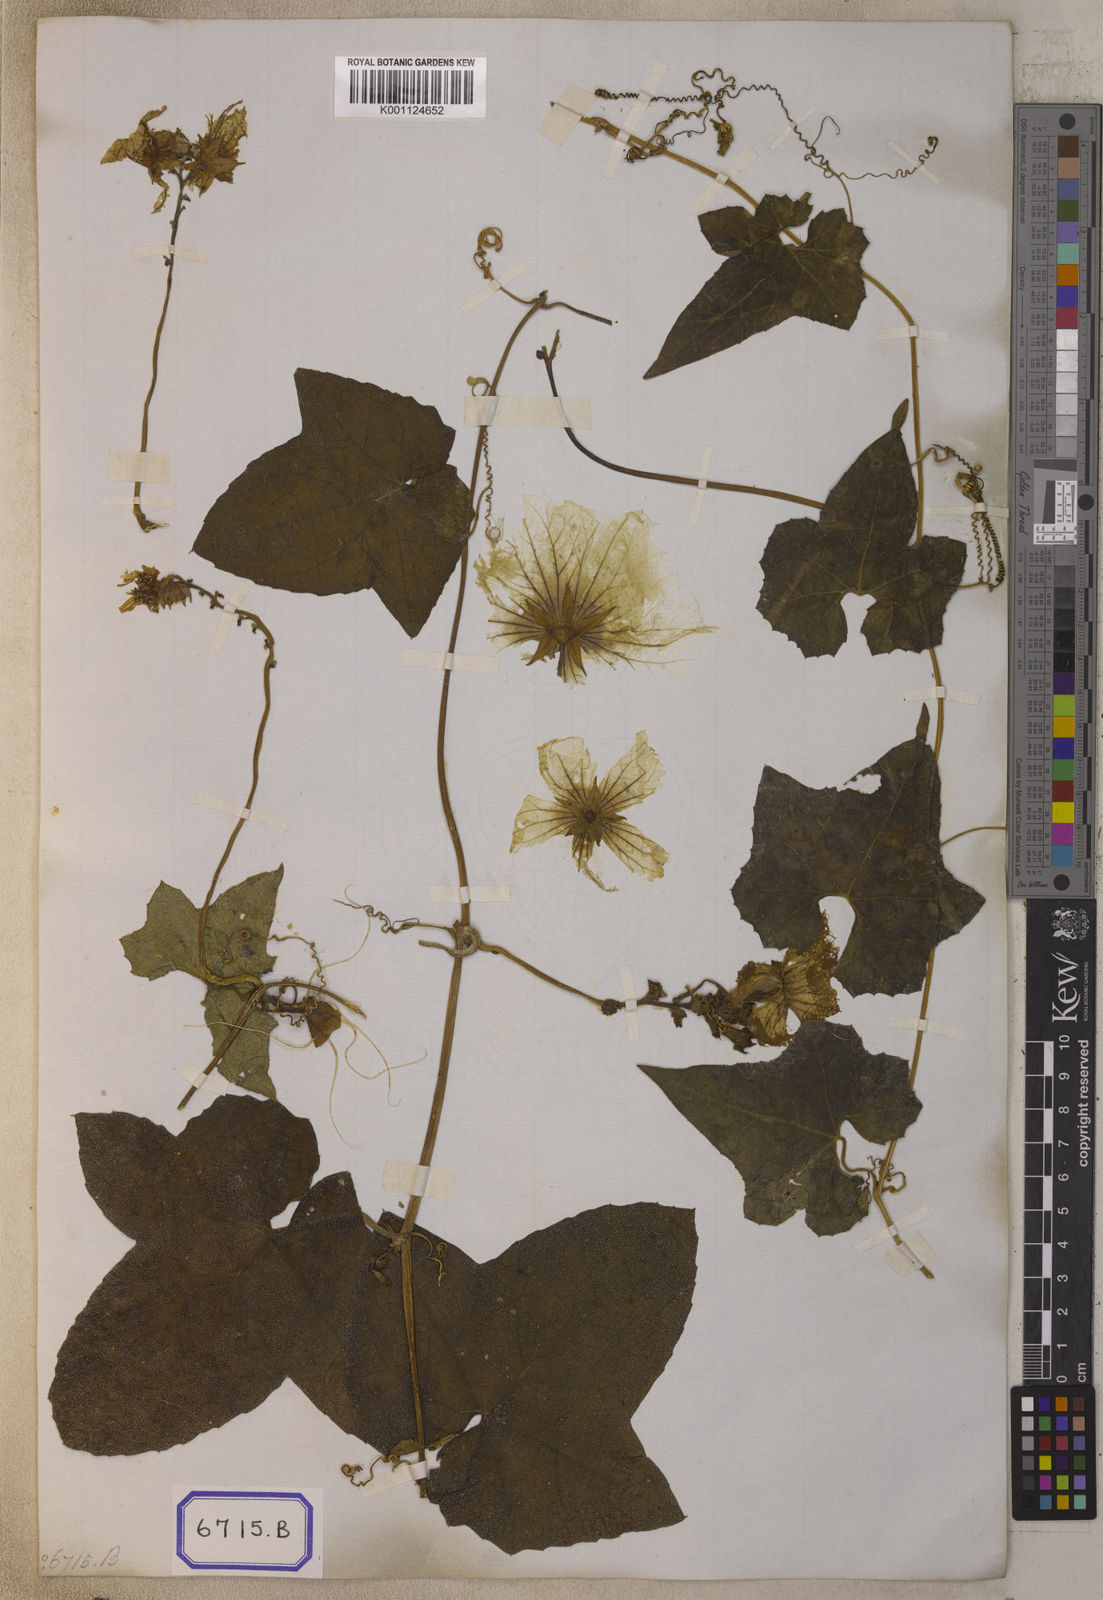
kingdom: Plantae
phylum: Tracheophyta
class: Magnoliopsida
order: Cucurbitales
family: Cucurbitaceae
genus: Luffa
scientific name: Luffa aegyptiaca
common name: Sponge gourd
